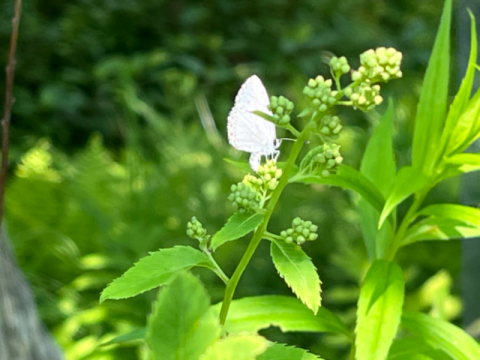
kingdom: Animalia
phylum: Arthropoda
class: Insecta
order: Lepidoptera
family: Lycaenidae
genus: Cyaniris
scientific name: Cyaniris neglecta
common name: Summer Azure
